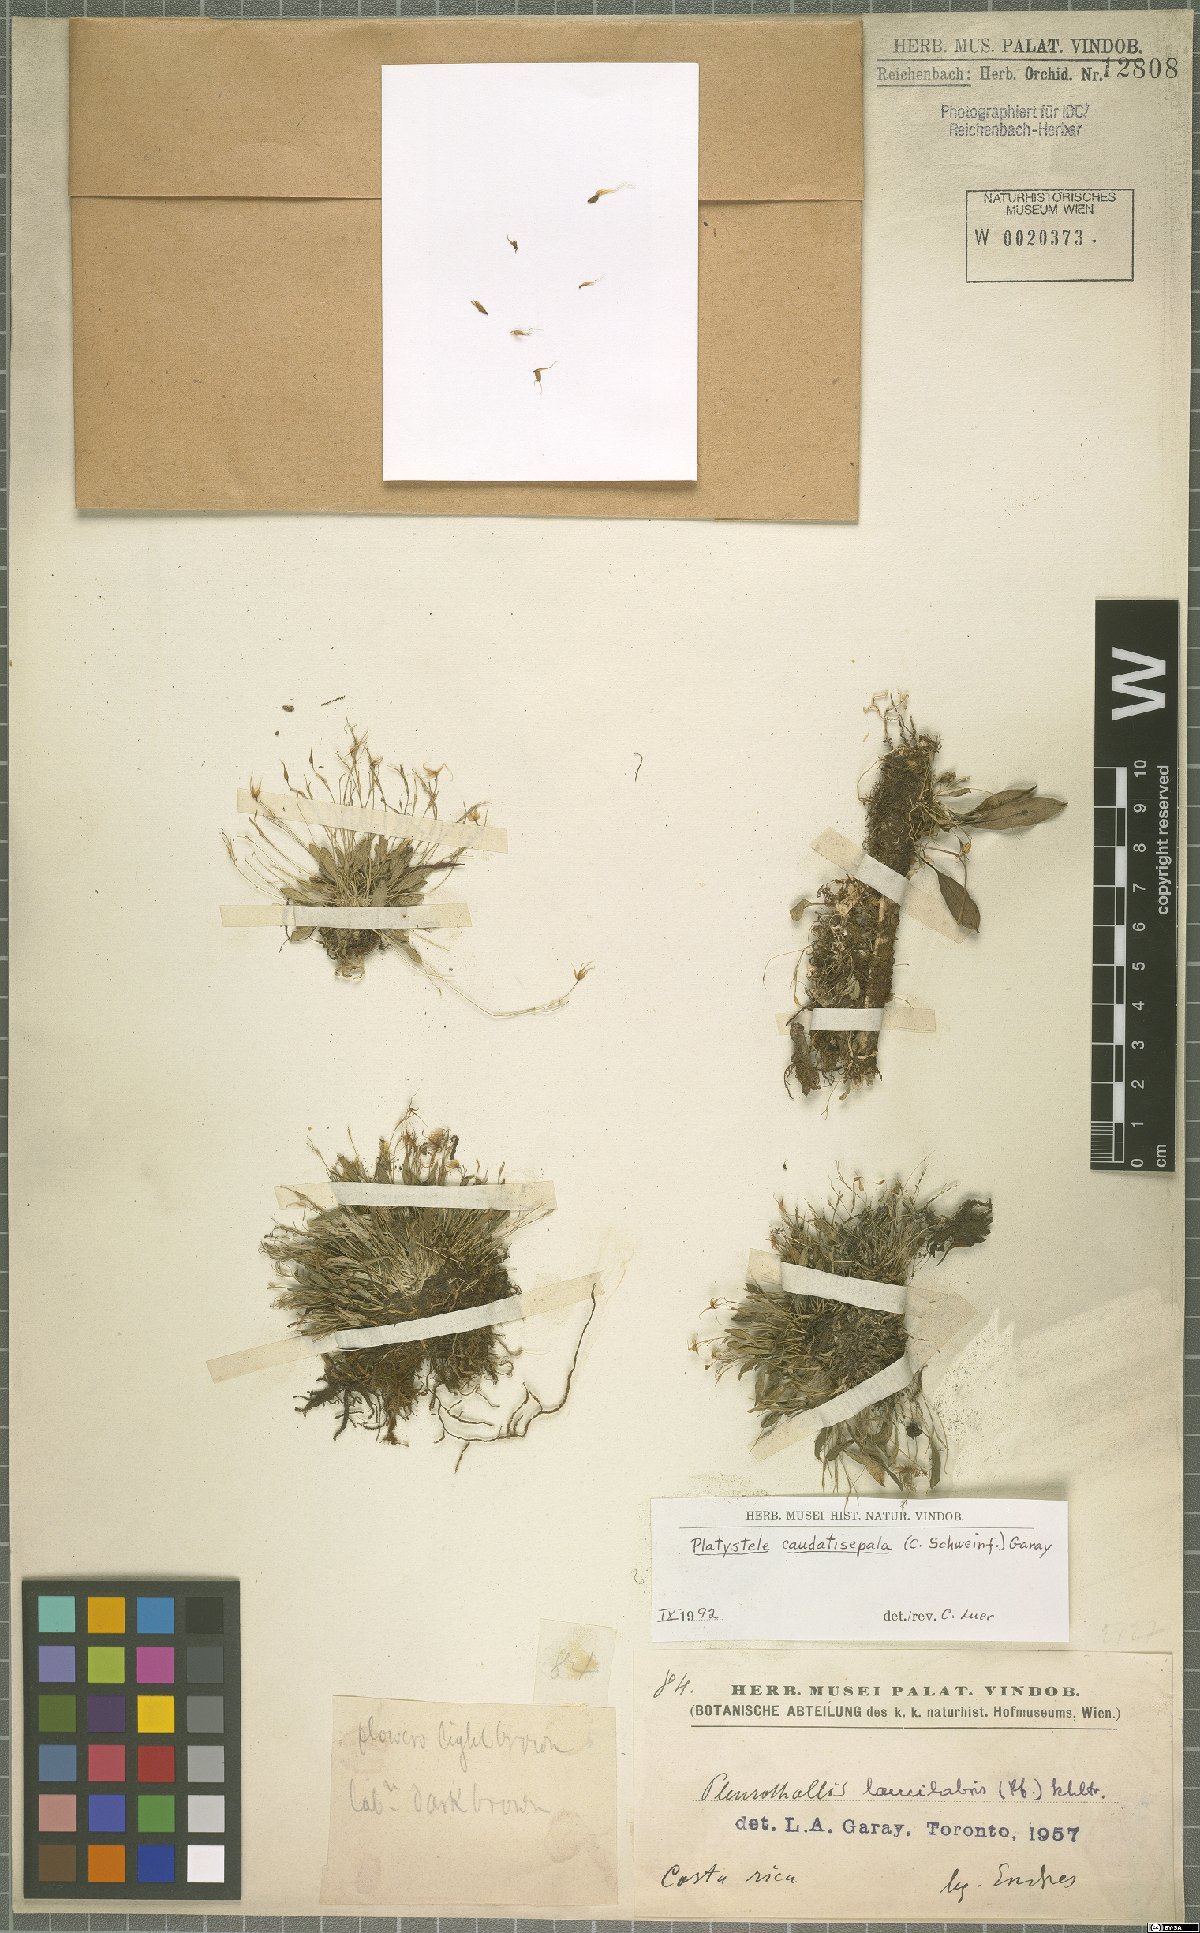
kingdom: Plantae
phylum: Tracheophyta
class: Liliopsida
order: Asparagales
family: Orchidaceae
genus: Platystele
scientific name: Platystele caudatisepala
